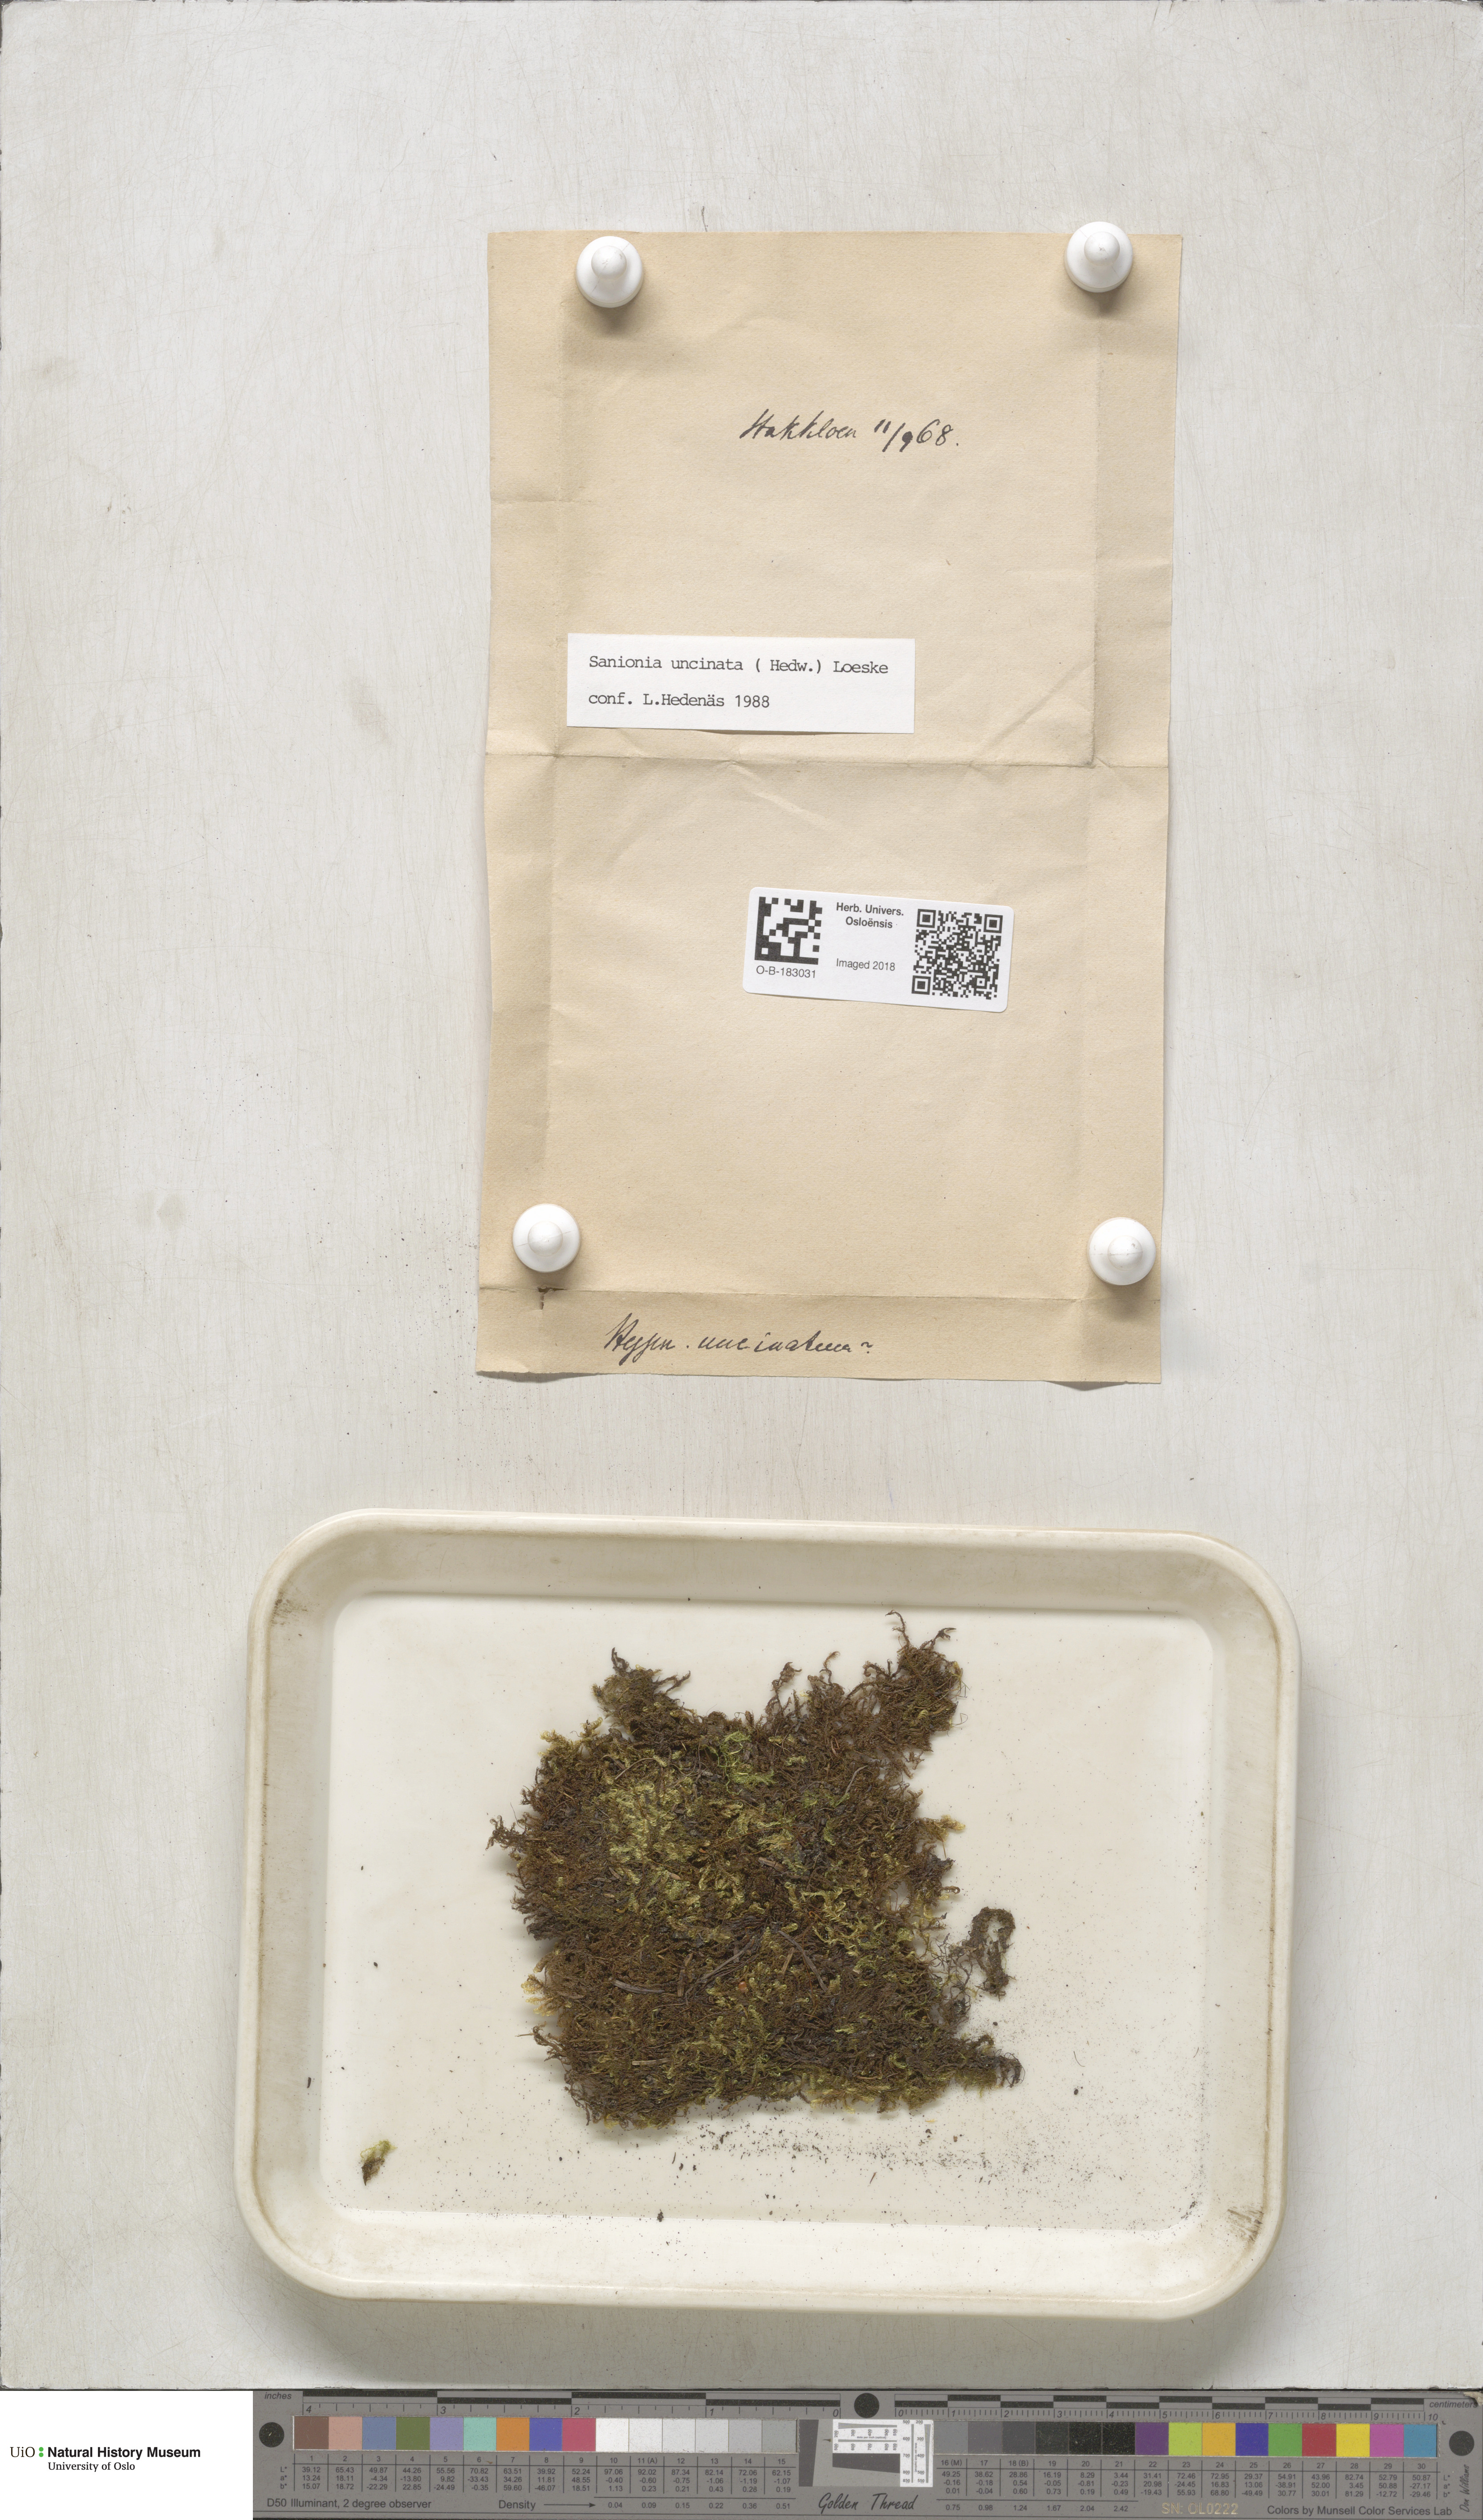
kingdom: Plantae
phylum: Bryophyta
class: Bryopsida
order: Hypnales
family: Scorpidiaceae
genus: Sanionia
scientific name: Sanionia uncinata
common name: Sickle moss
